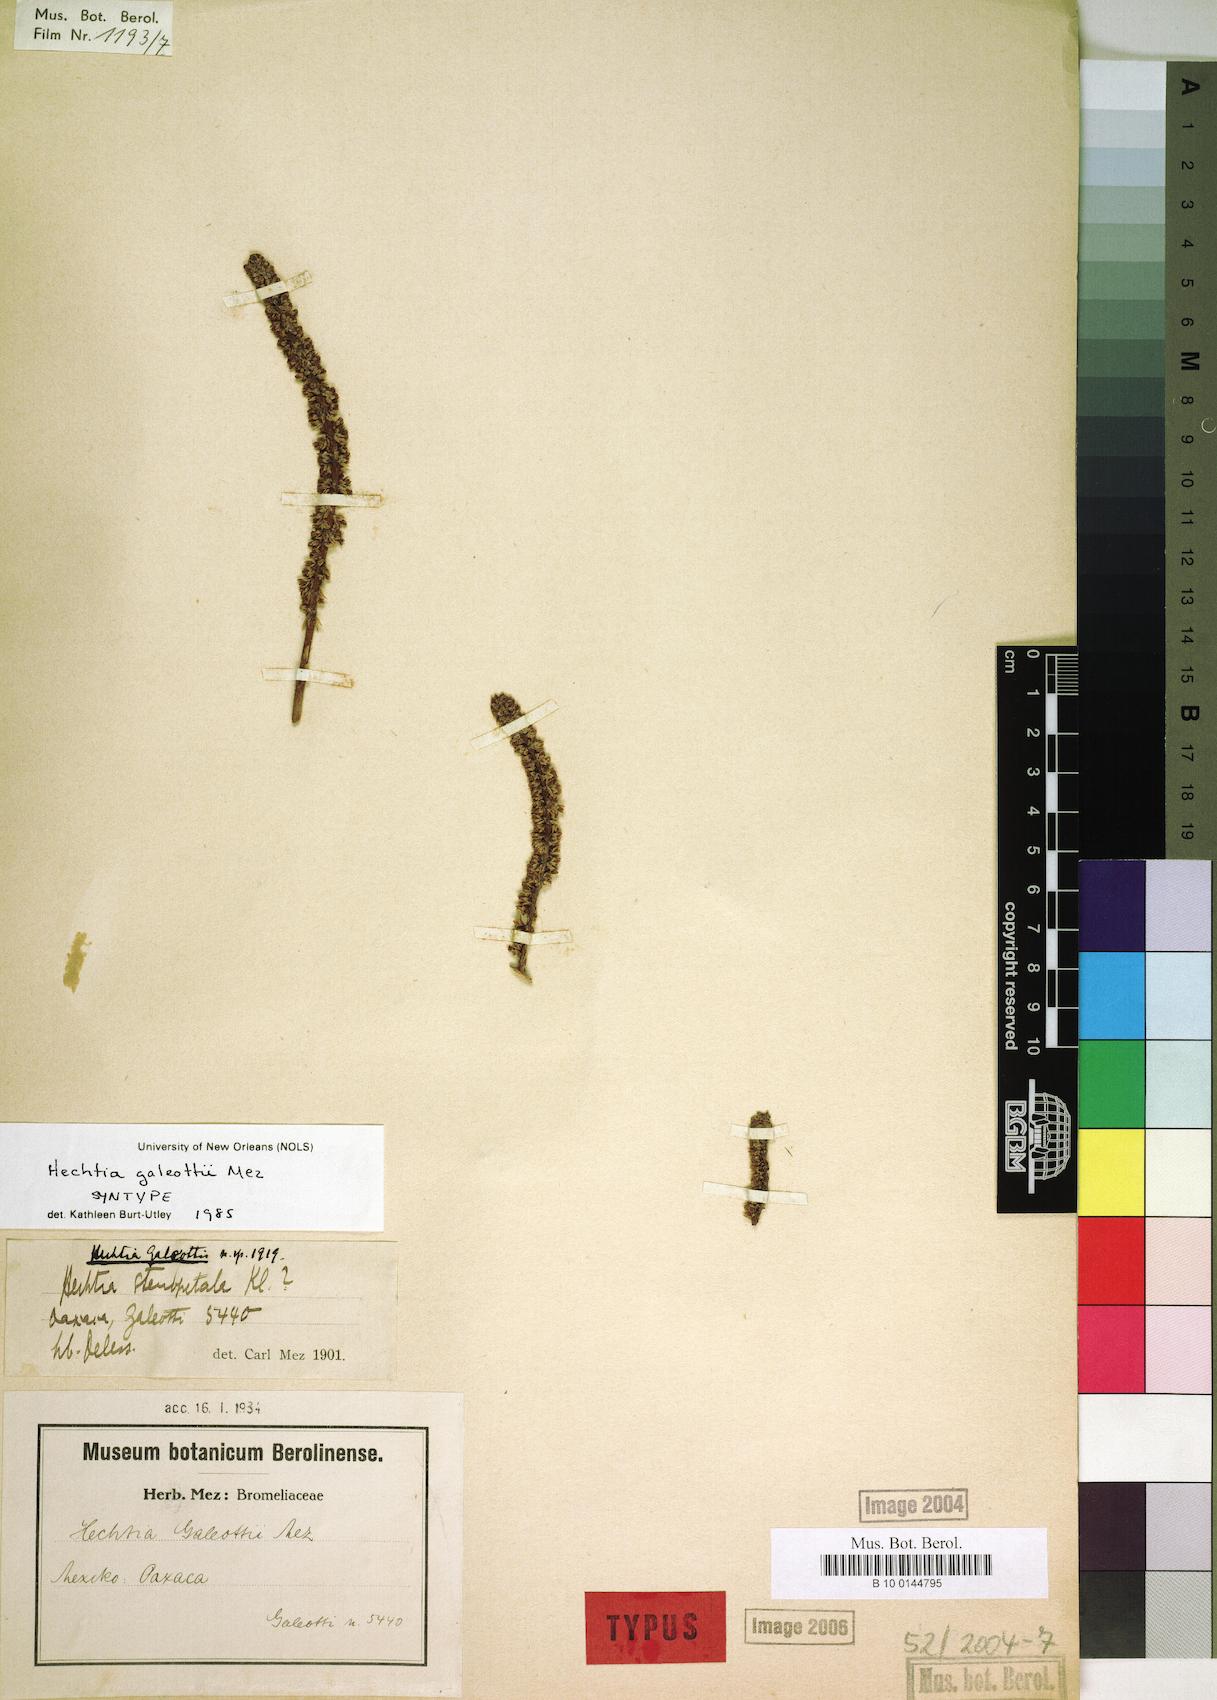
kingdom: Plantae
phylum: Tracheophyta
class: Liliopsida
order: Poales
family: Bromeliaceae
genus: Hechtia
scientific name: Hechtia galeottii
